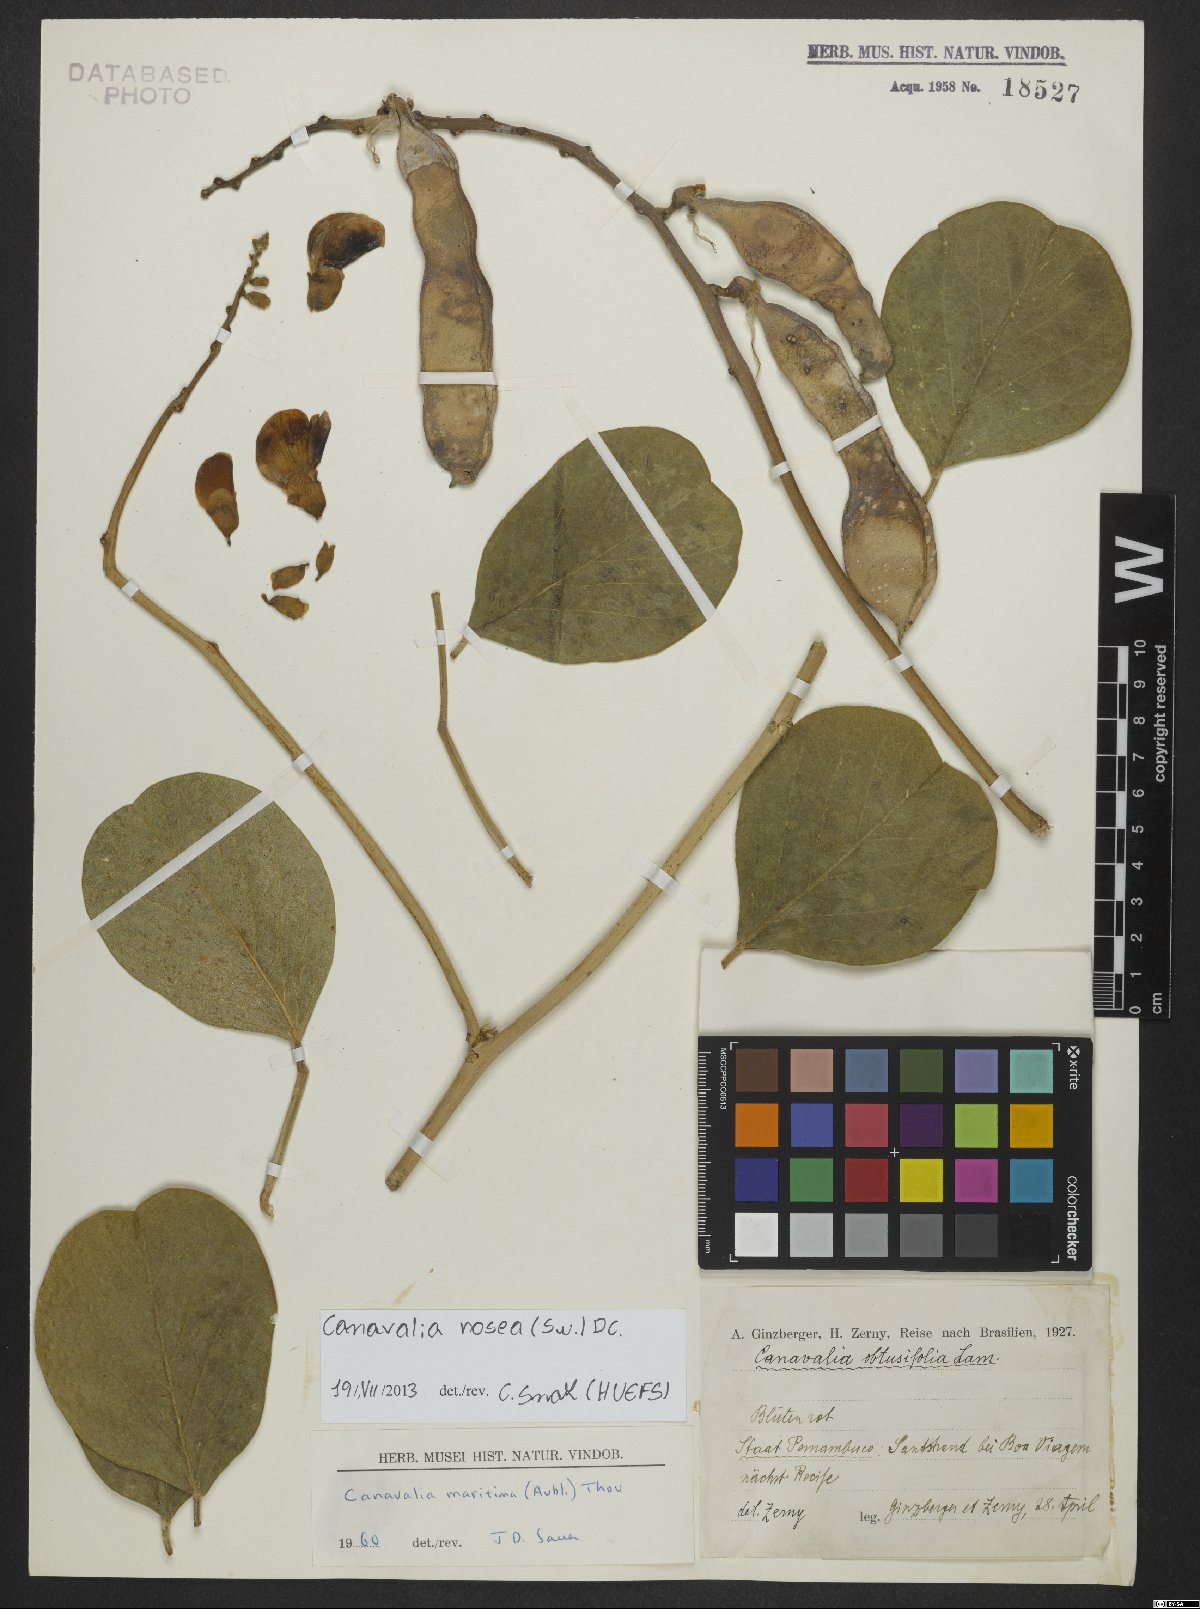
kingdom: Plantae
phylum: Tracheophyta
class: Magnoliopsida
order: Fabales
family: Fabaceae
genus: Canavalia
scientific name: Canavalia rosea
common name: Beach-bean
